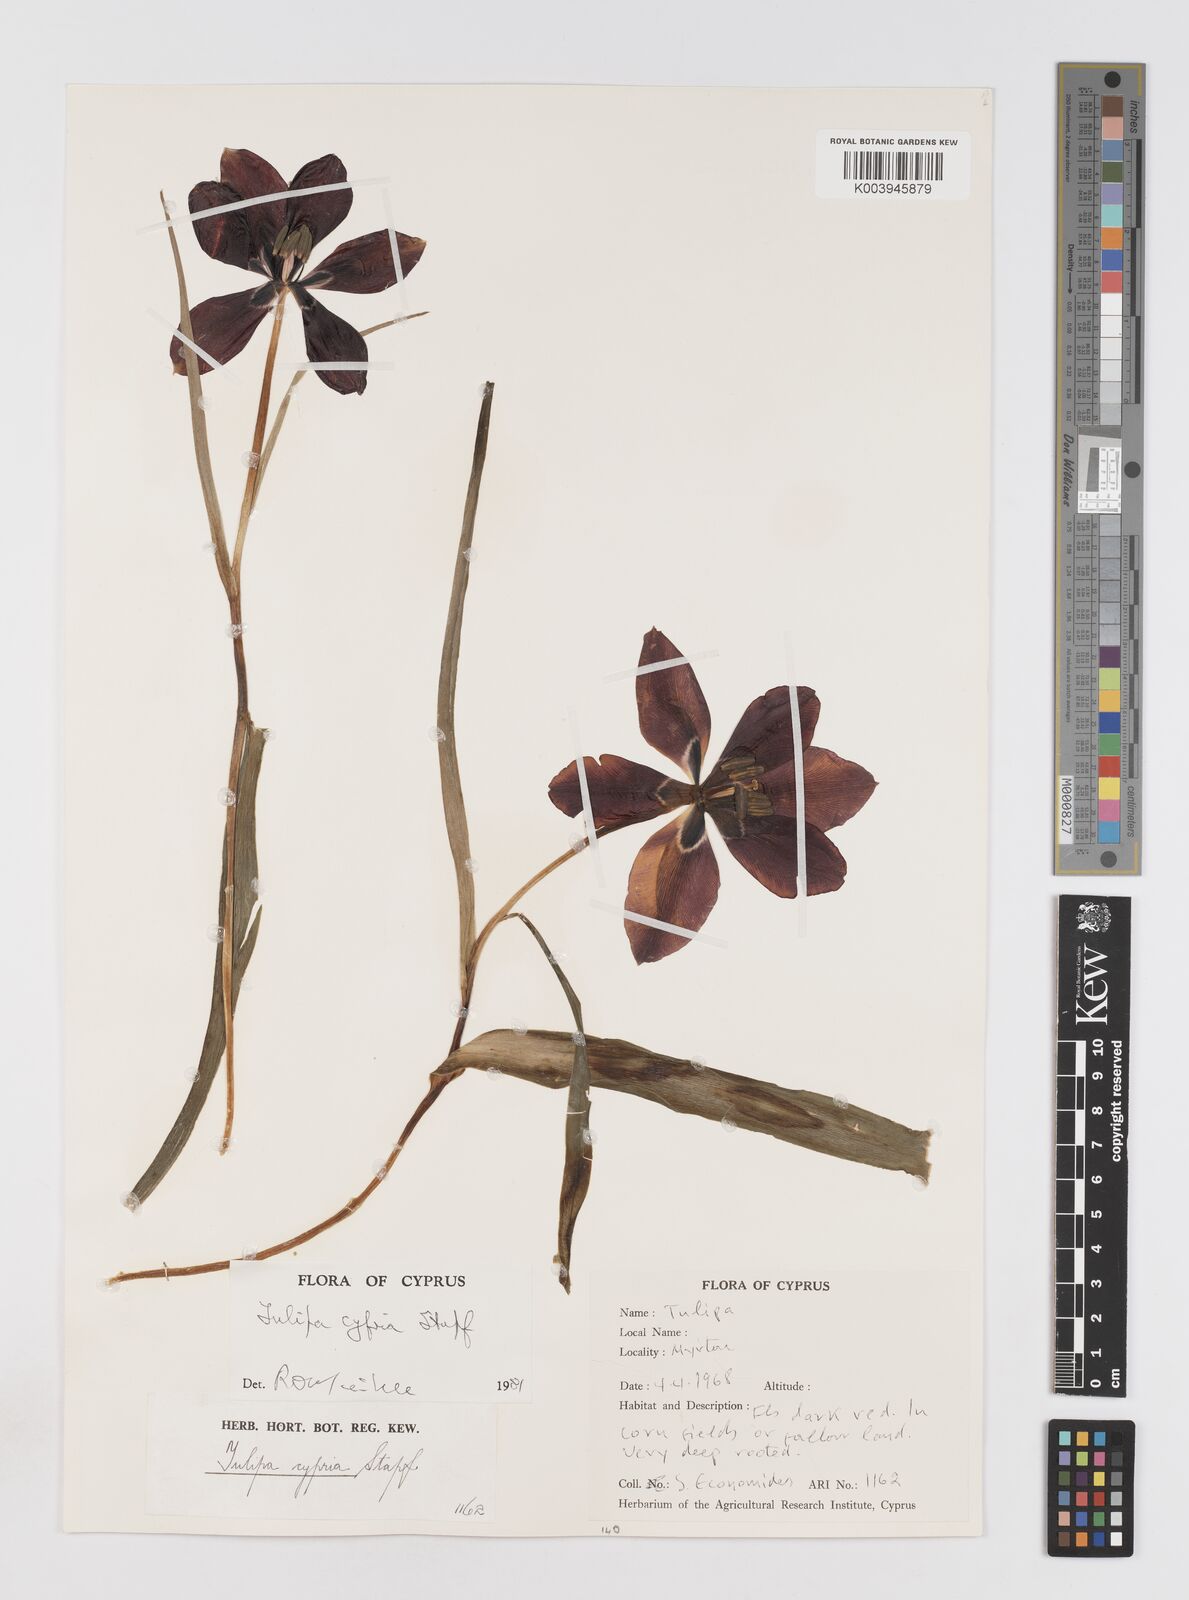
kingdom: Plantae
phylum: Tracheophyta
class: Liliopsida
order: Liliales
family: Liliaceae
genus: Tulipa
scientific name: Tulipa cypria
